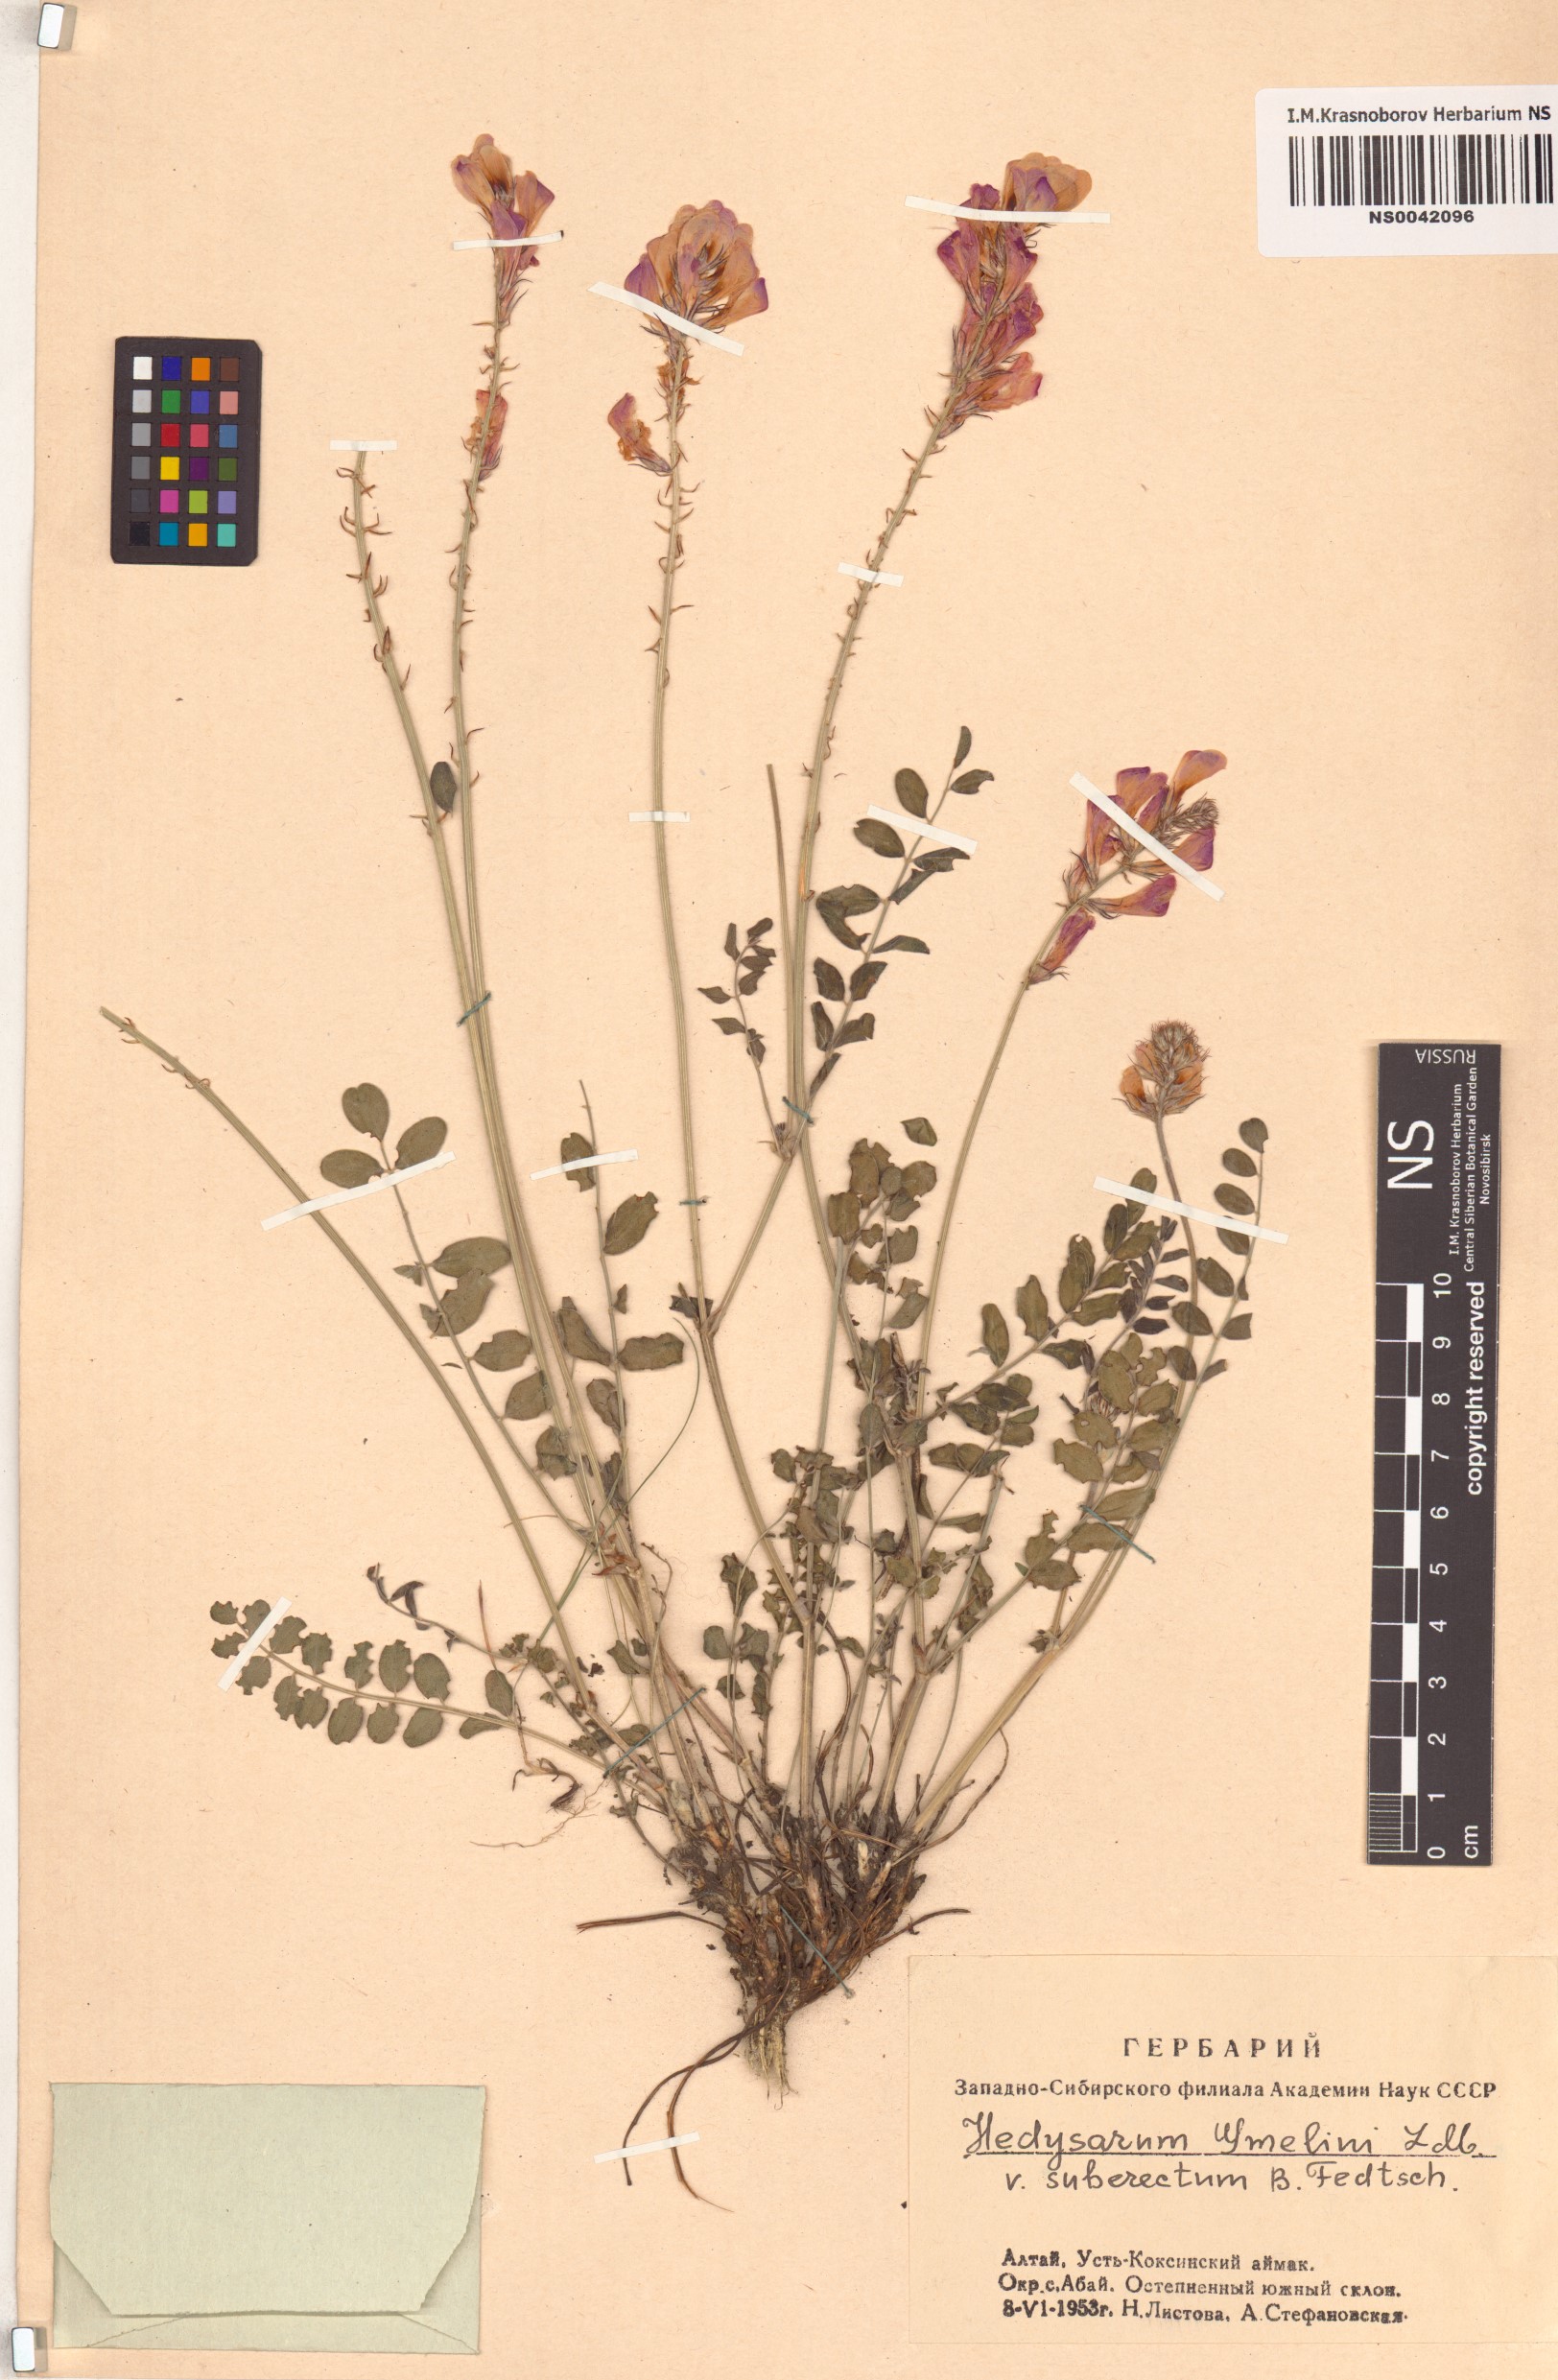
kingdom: Plantae
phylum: Tracheophyta
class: Magnoliopsida
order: Fabales
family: Fabaceae
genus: Hedysarum
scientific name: Hedysarum gmelinii
